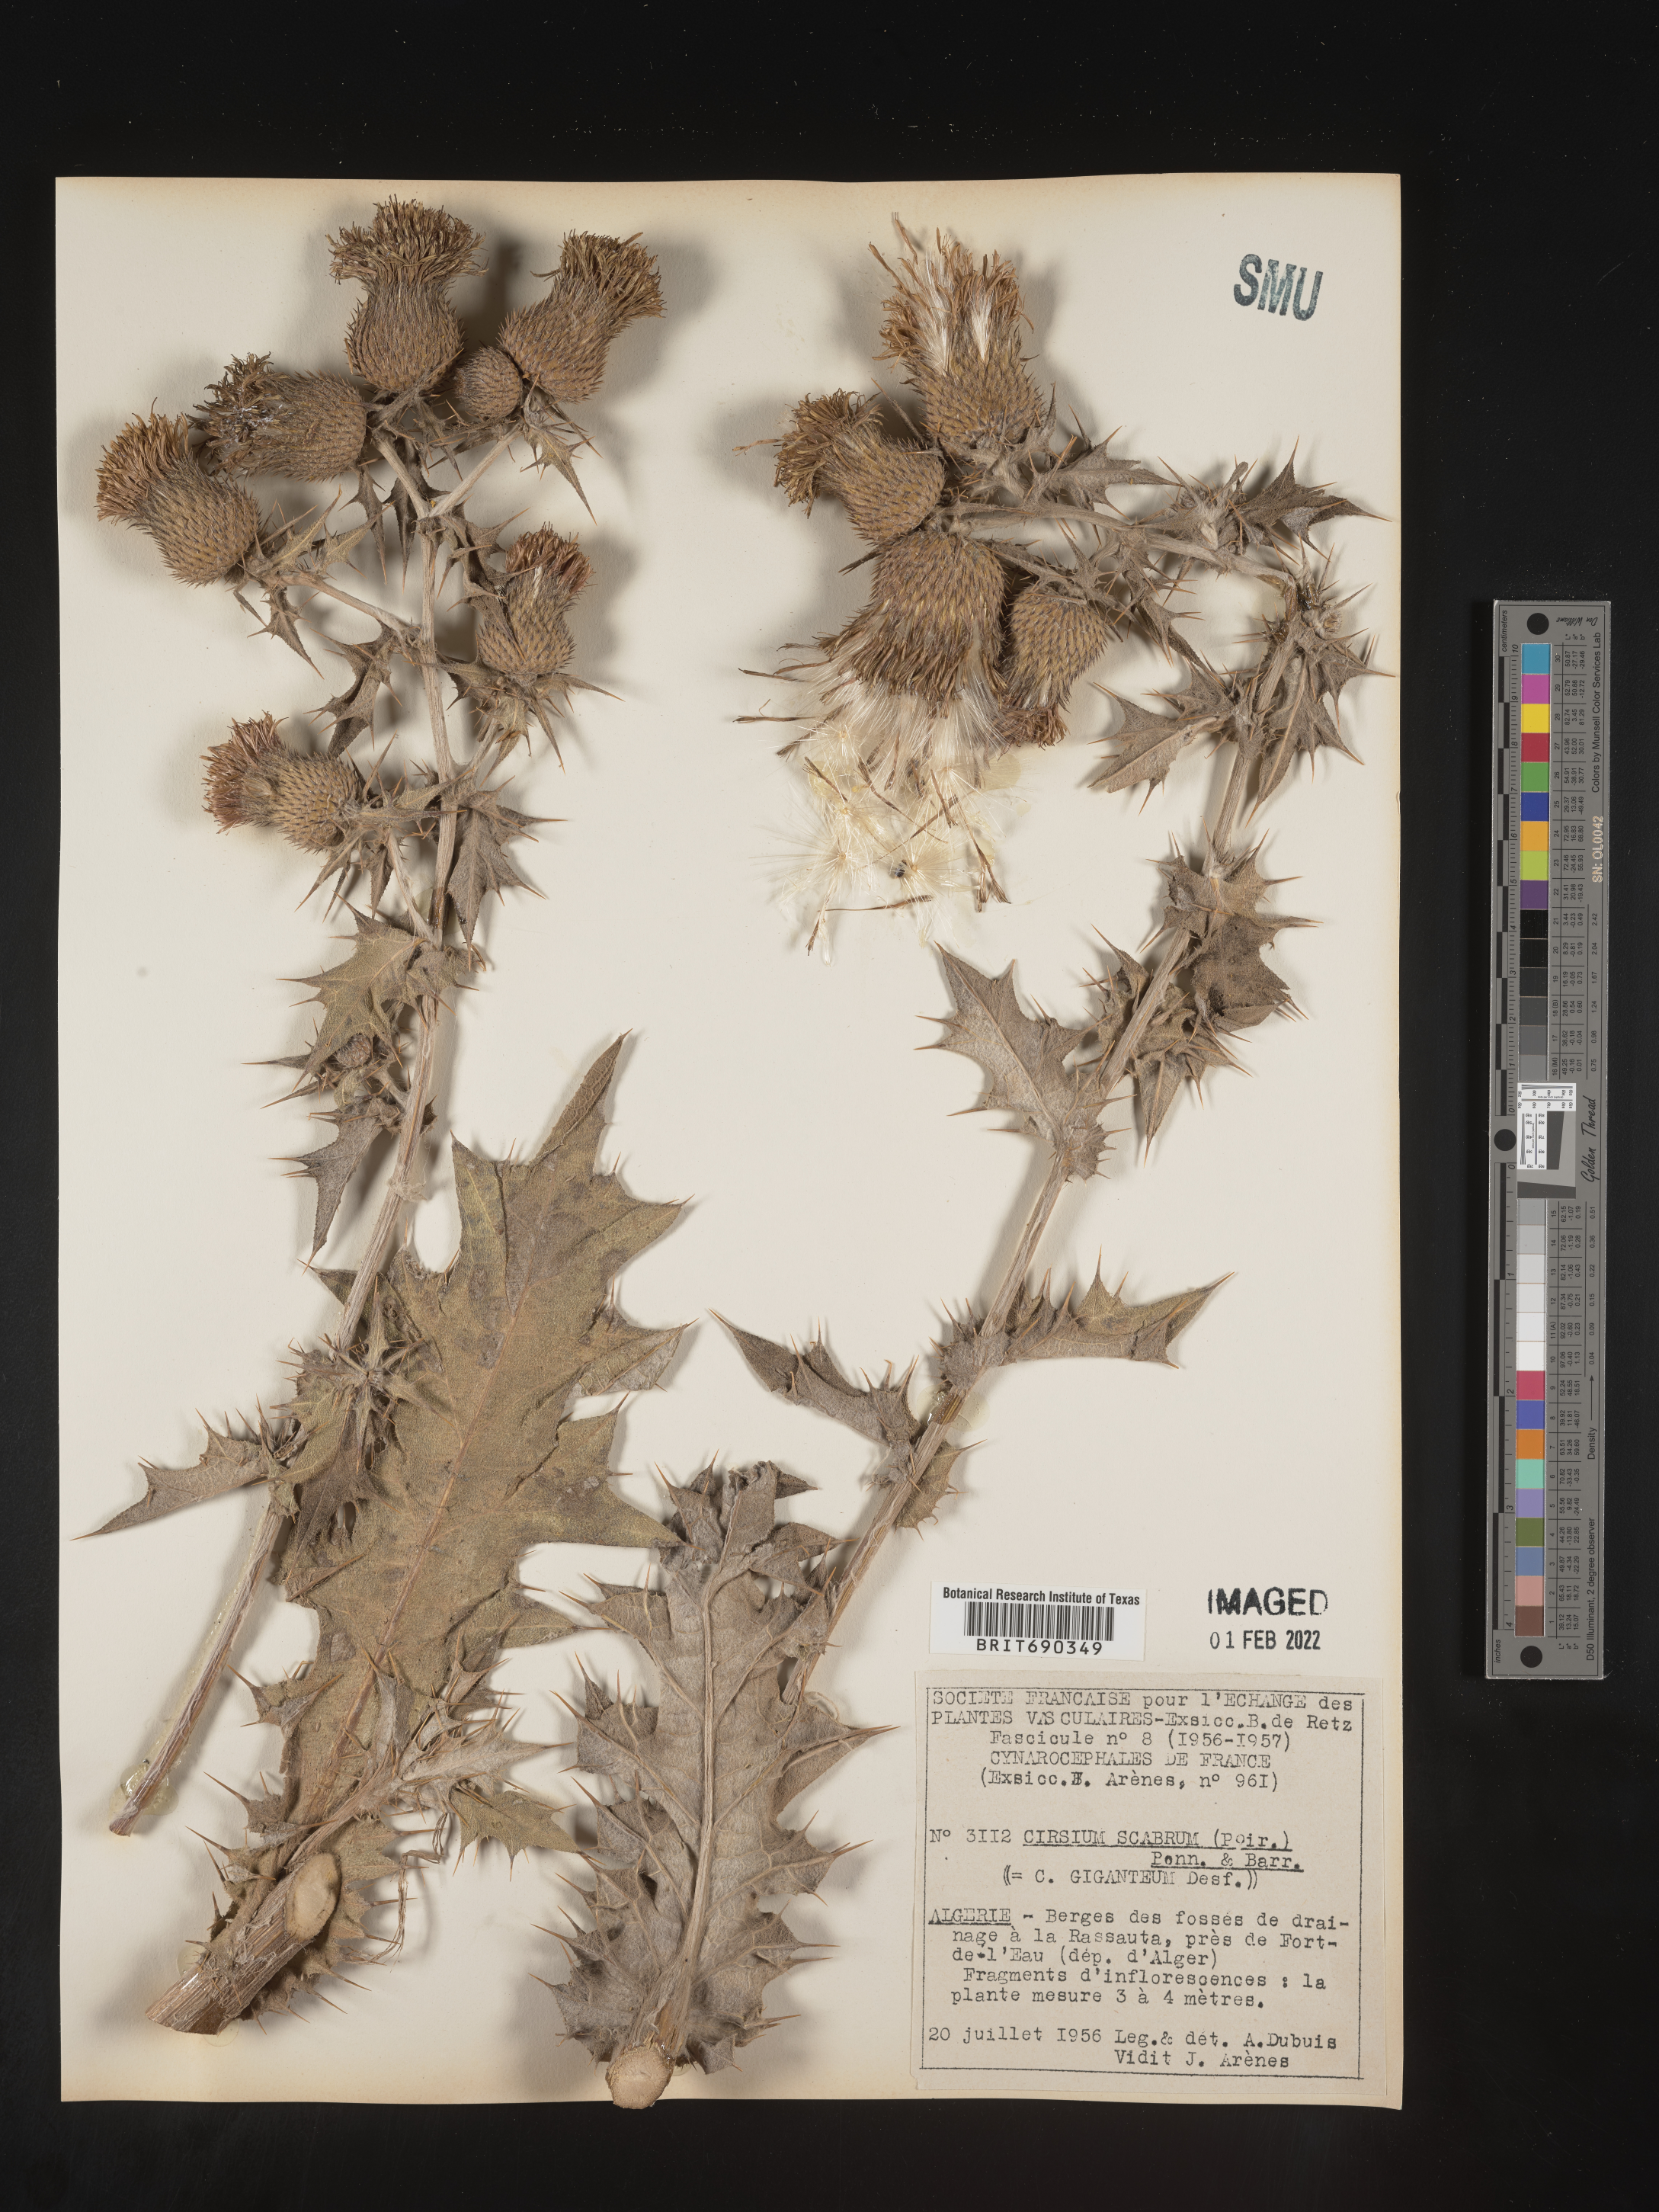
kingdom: Plantae
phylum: Tracheophyta
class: Magnoliopsida
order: Asterales
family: Asteraceae
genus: Cirsium
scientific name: Cirsium
